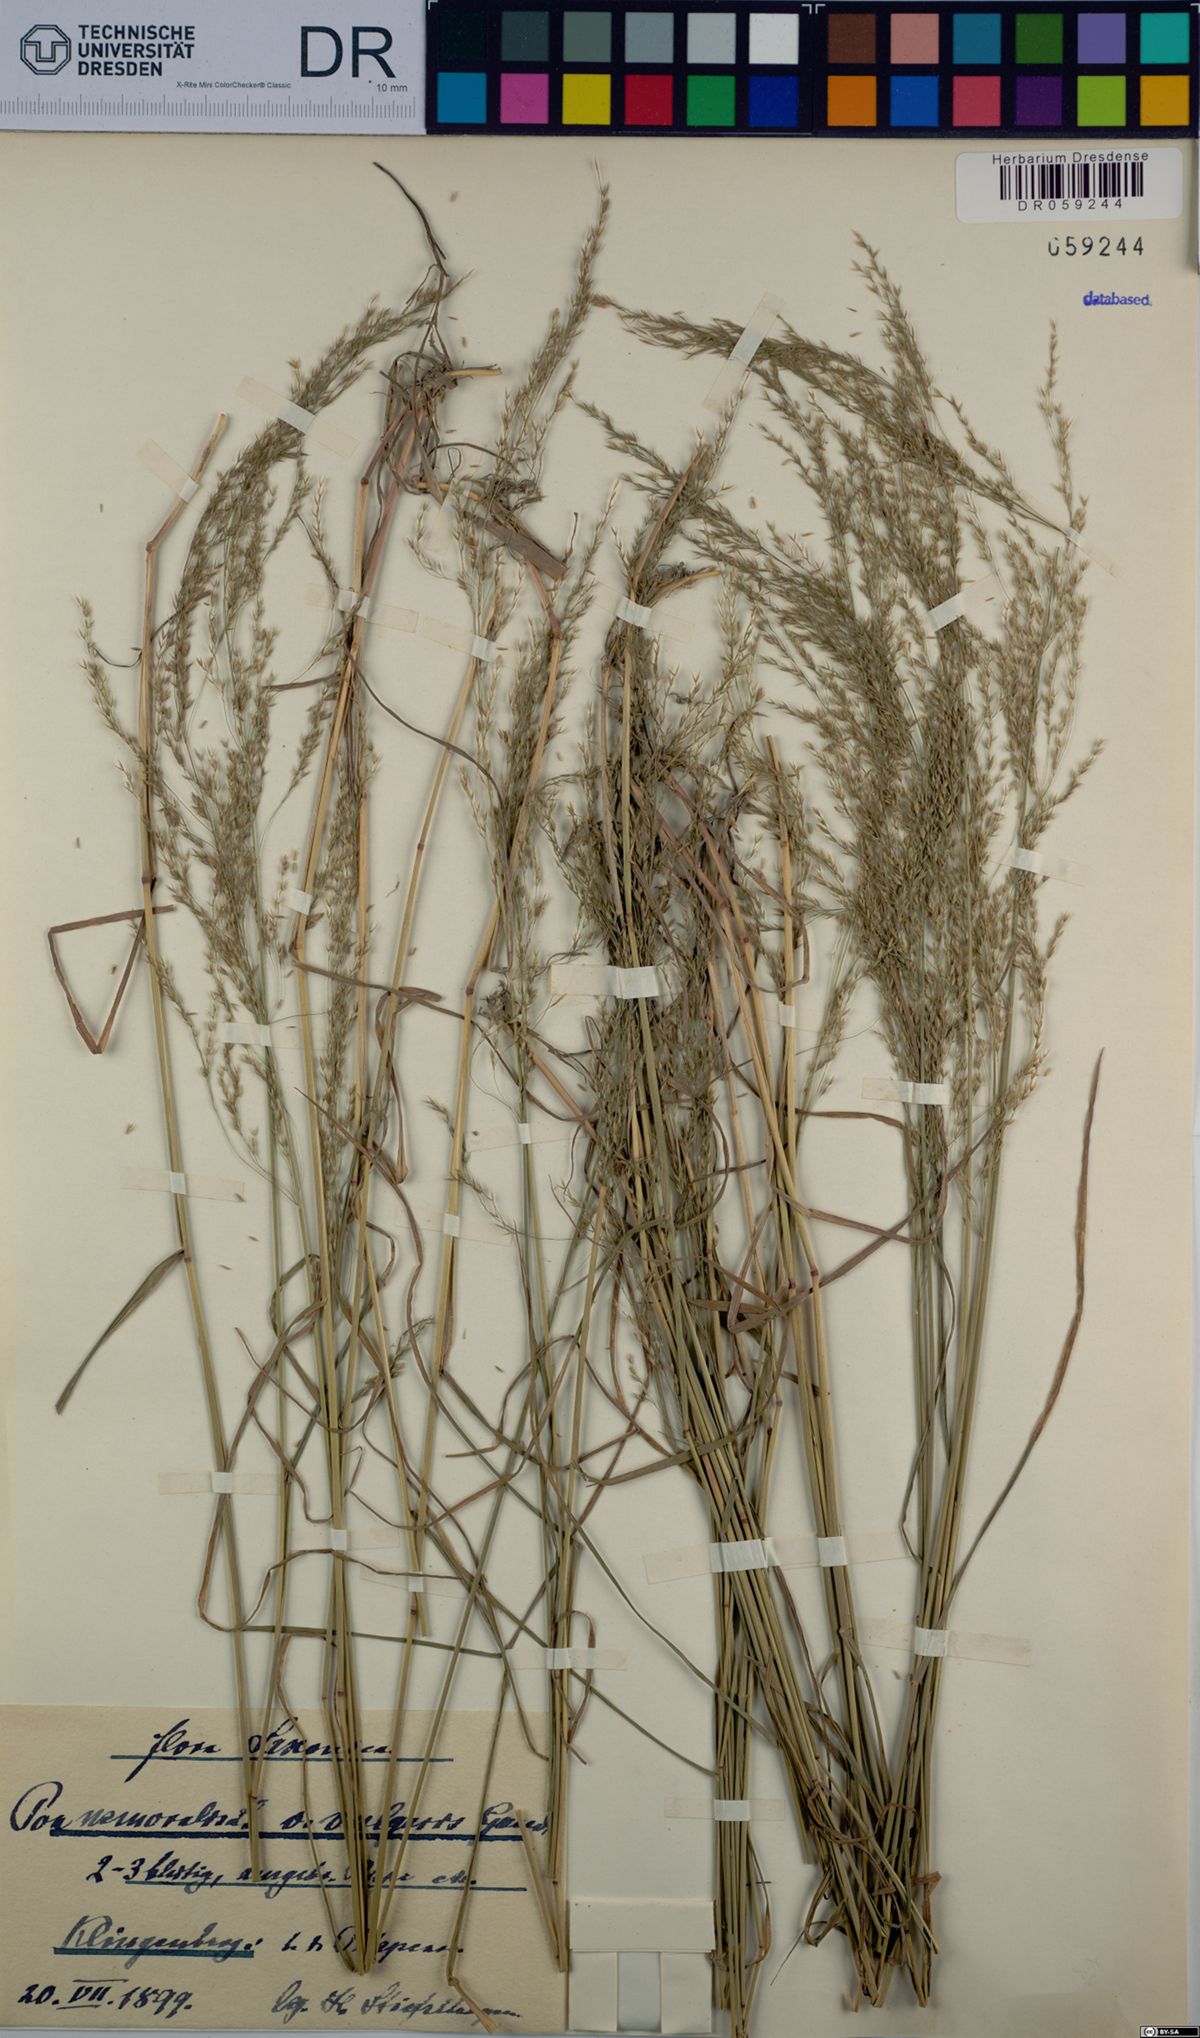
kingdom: Plantae
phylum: Tracheophyta
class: Liliopsida
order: Poales
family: Poaceae
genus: Poa
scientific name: Poa nemoralis
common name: Wood bluegrass
